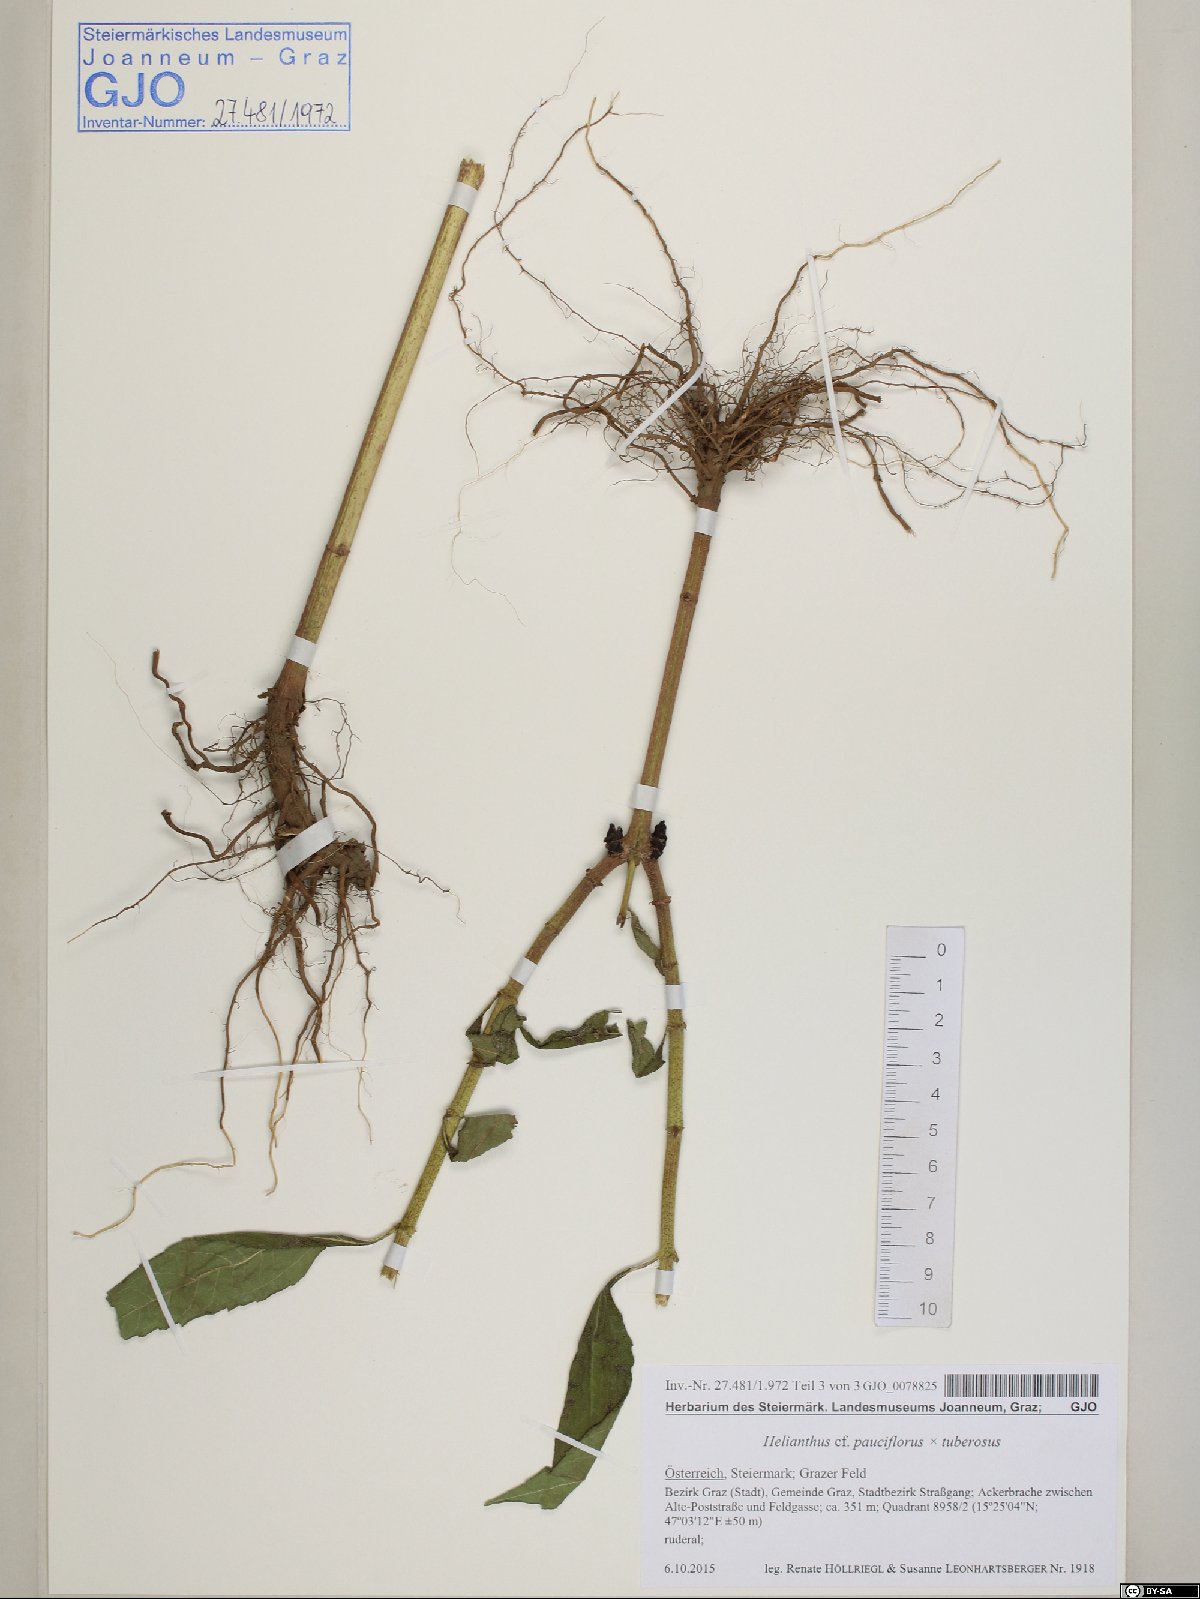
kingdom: Plantae
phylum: Tracheophyta
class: Magnoliopsida
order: Asterales
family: Asteraceae
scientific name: Asteraceae
